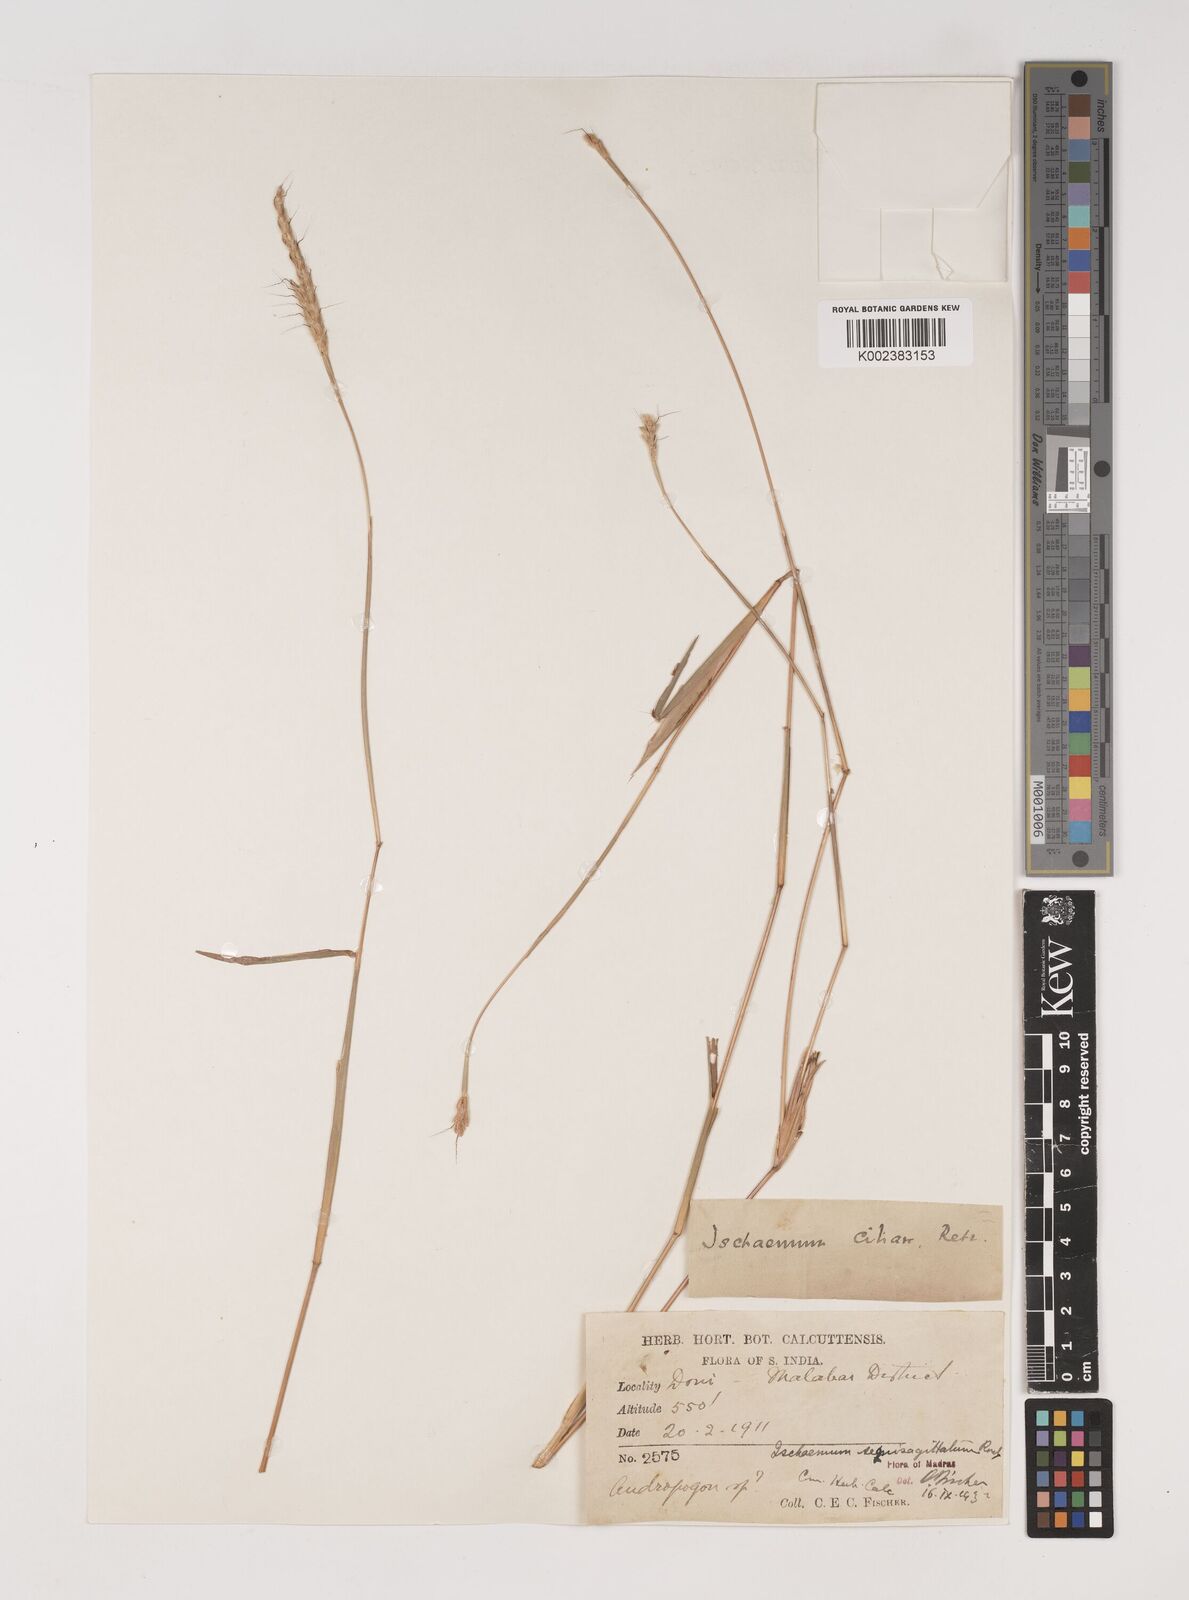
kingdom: Plantae
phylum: Tracheophyta
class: Liliopsida
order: Poales
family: Poaceae
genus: Ischaemum
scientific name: Ischaemum semisagittatum
